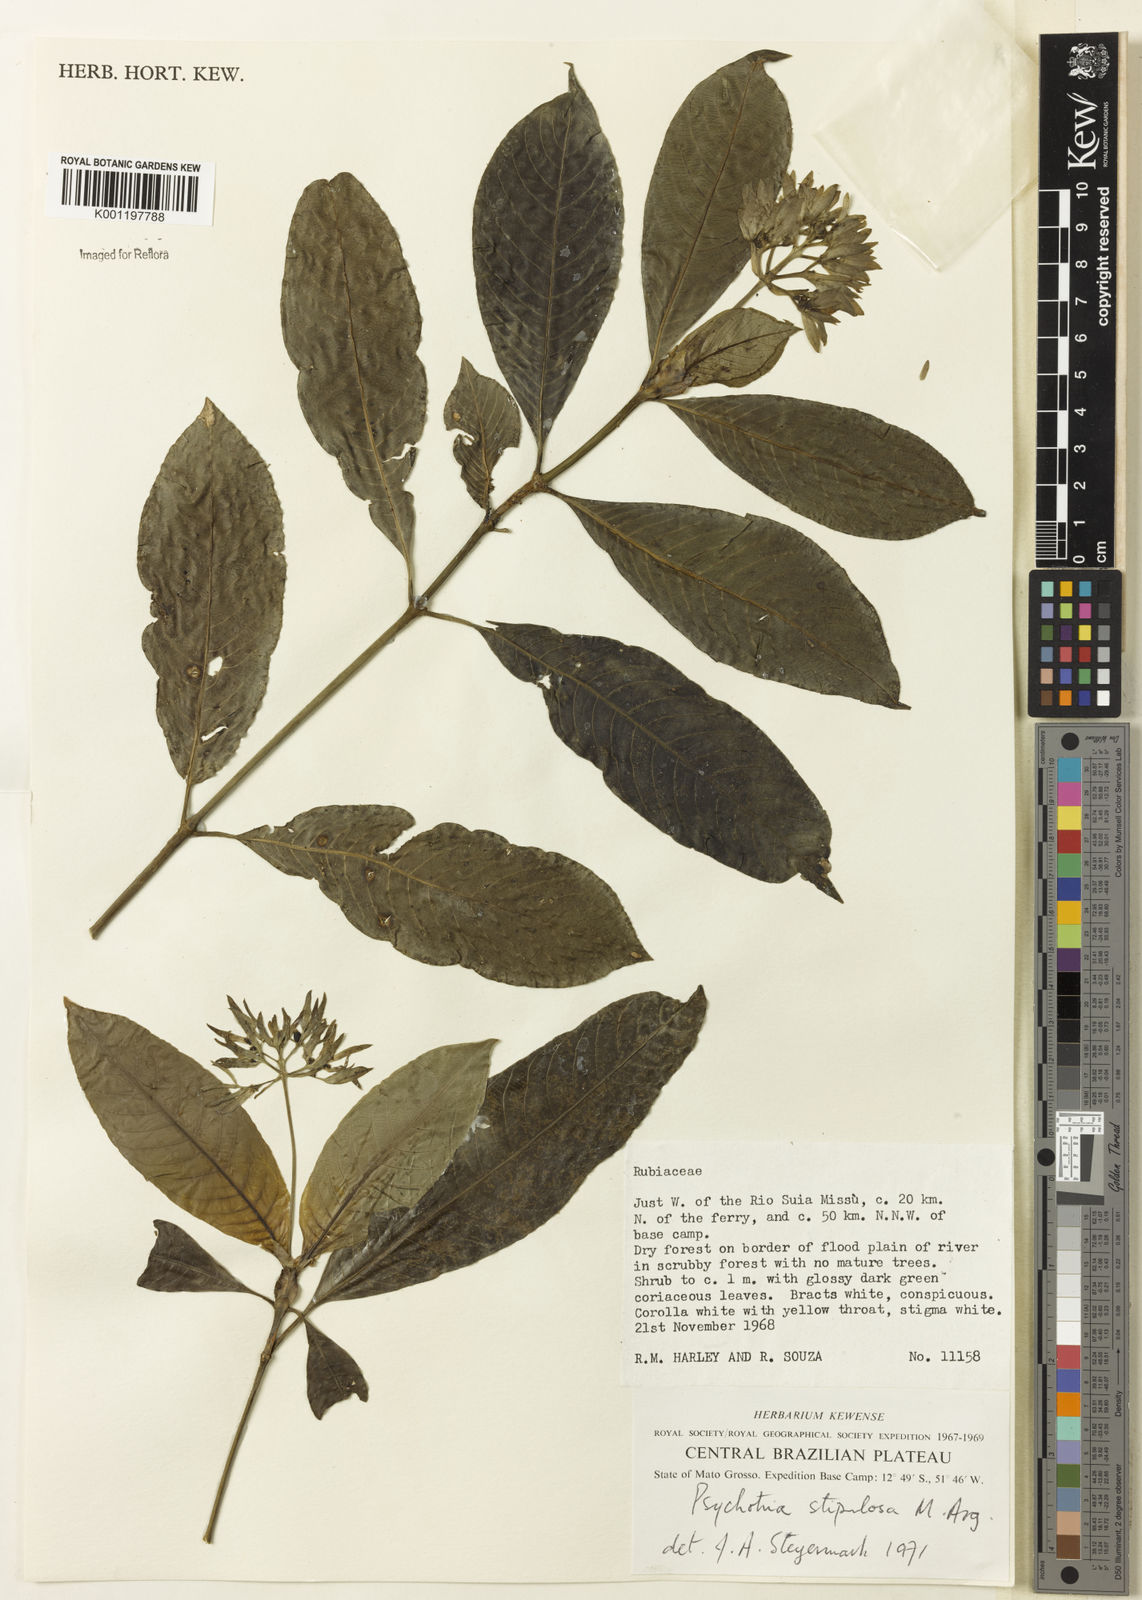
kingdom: Plantae
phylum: Tracheophyta
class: Magnoliopsida
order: Gentianales
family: Rubiaceae
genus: Psychotria
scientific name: Psychotria
